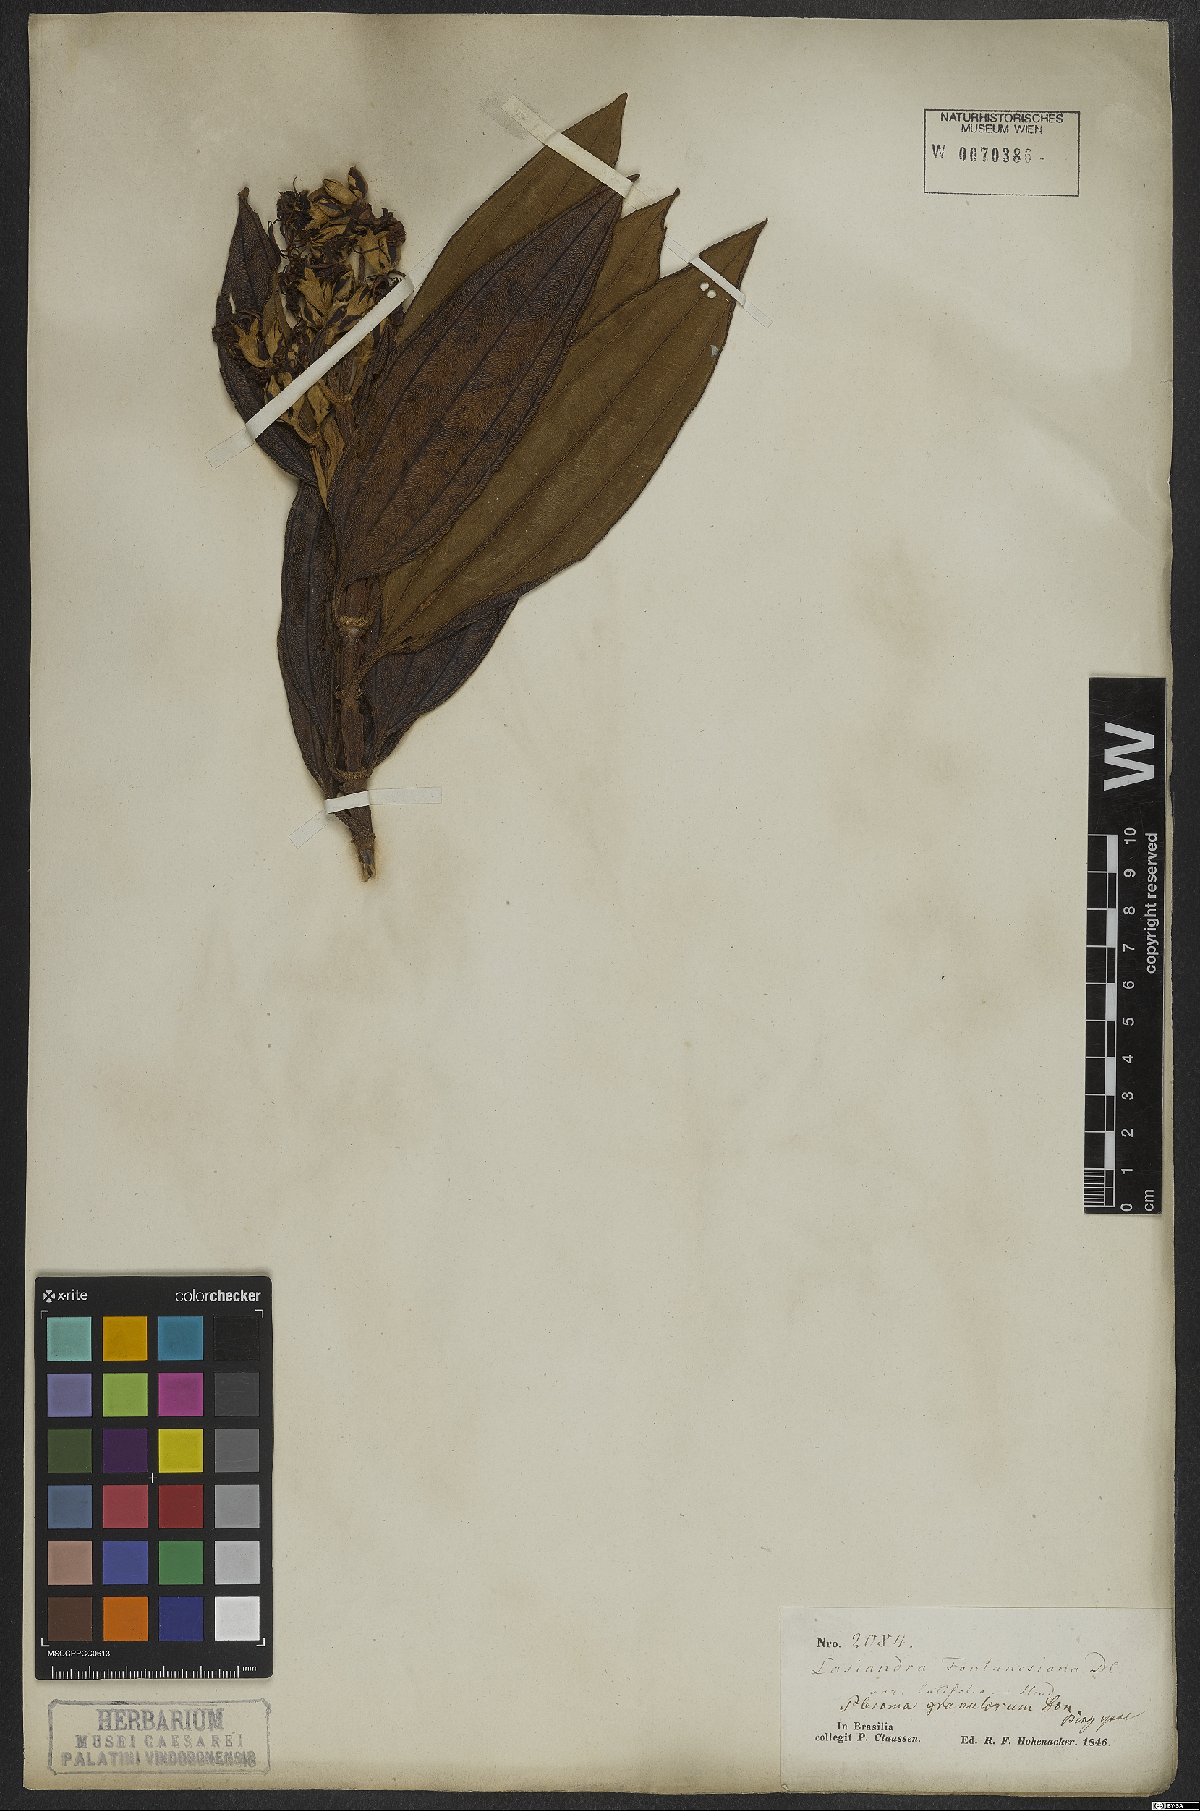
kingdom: Plantae
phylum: Tracheophyta
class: Magnoliopsida
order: Myrtales
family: Melastomataceae
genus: Pleroma
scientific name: Pleroma granulosum
